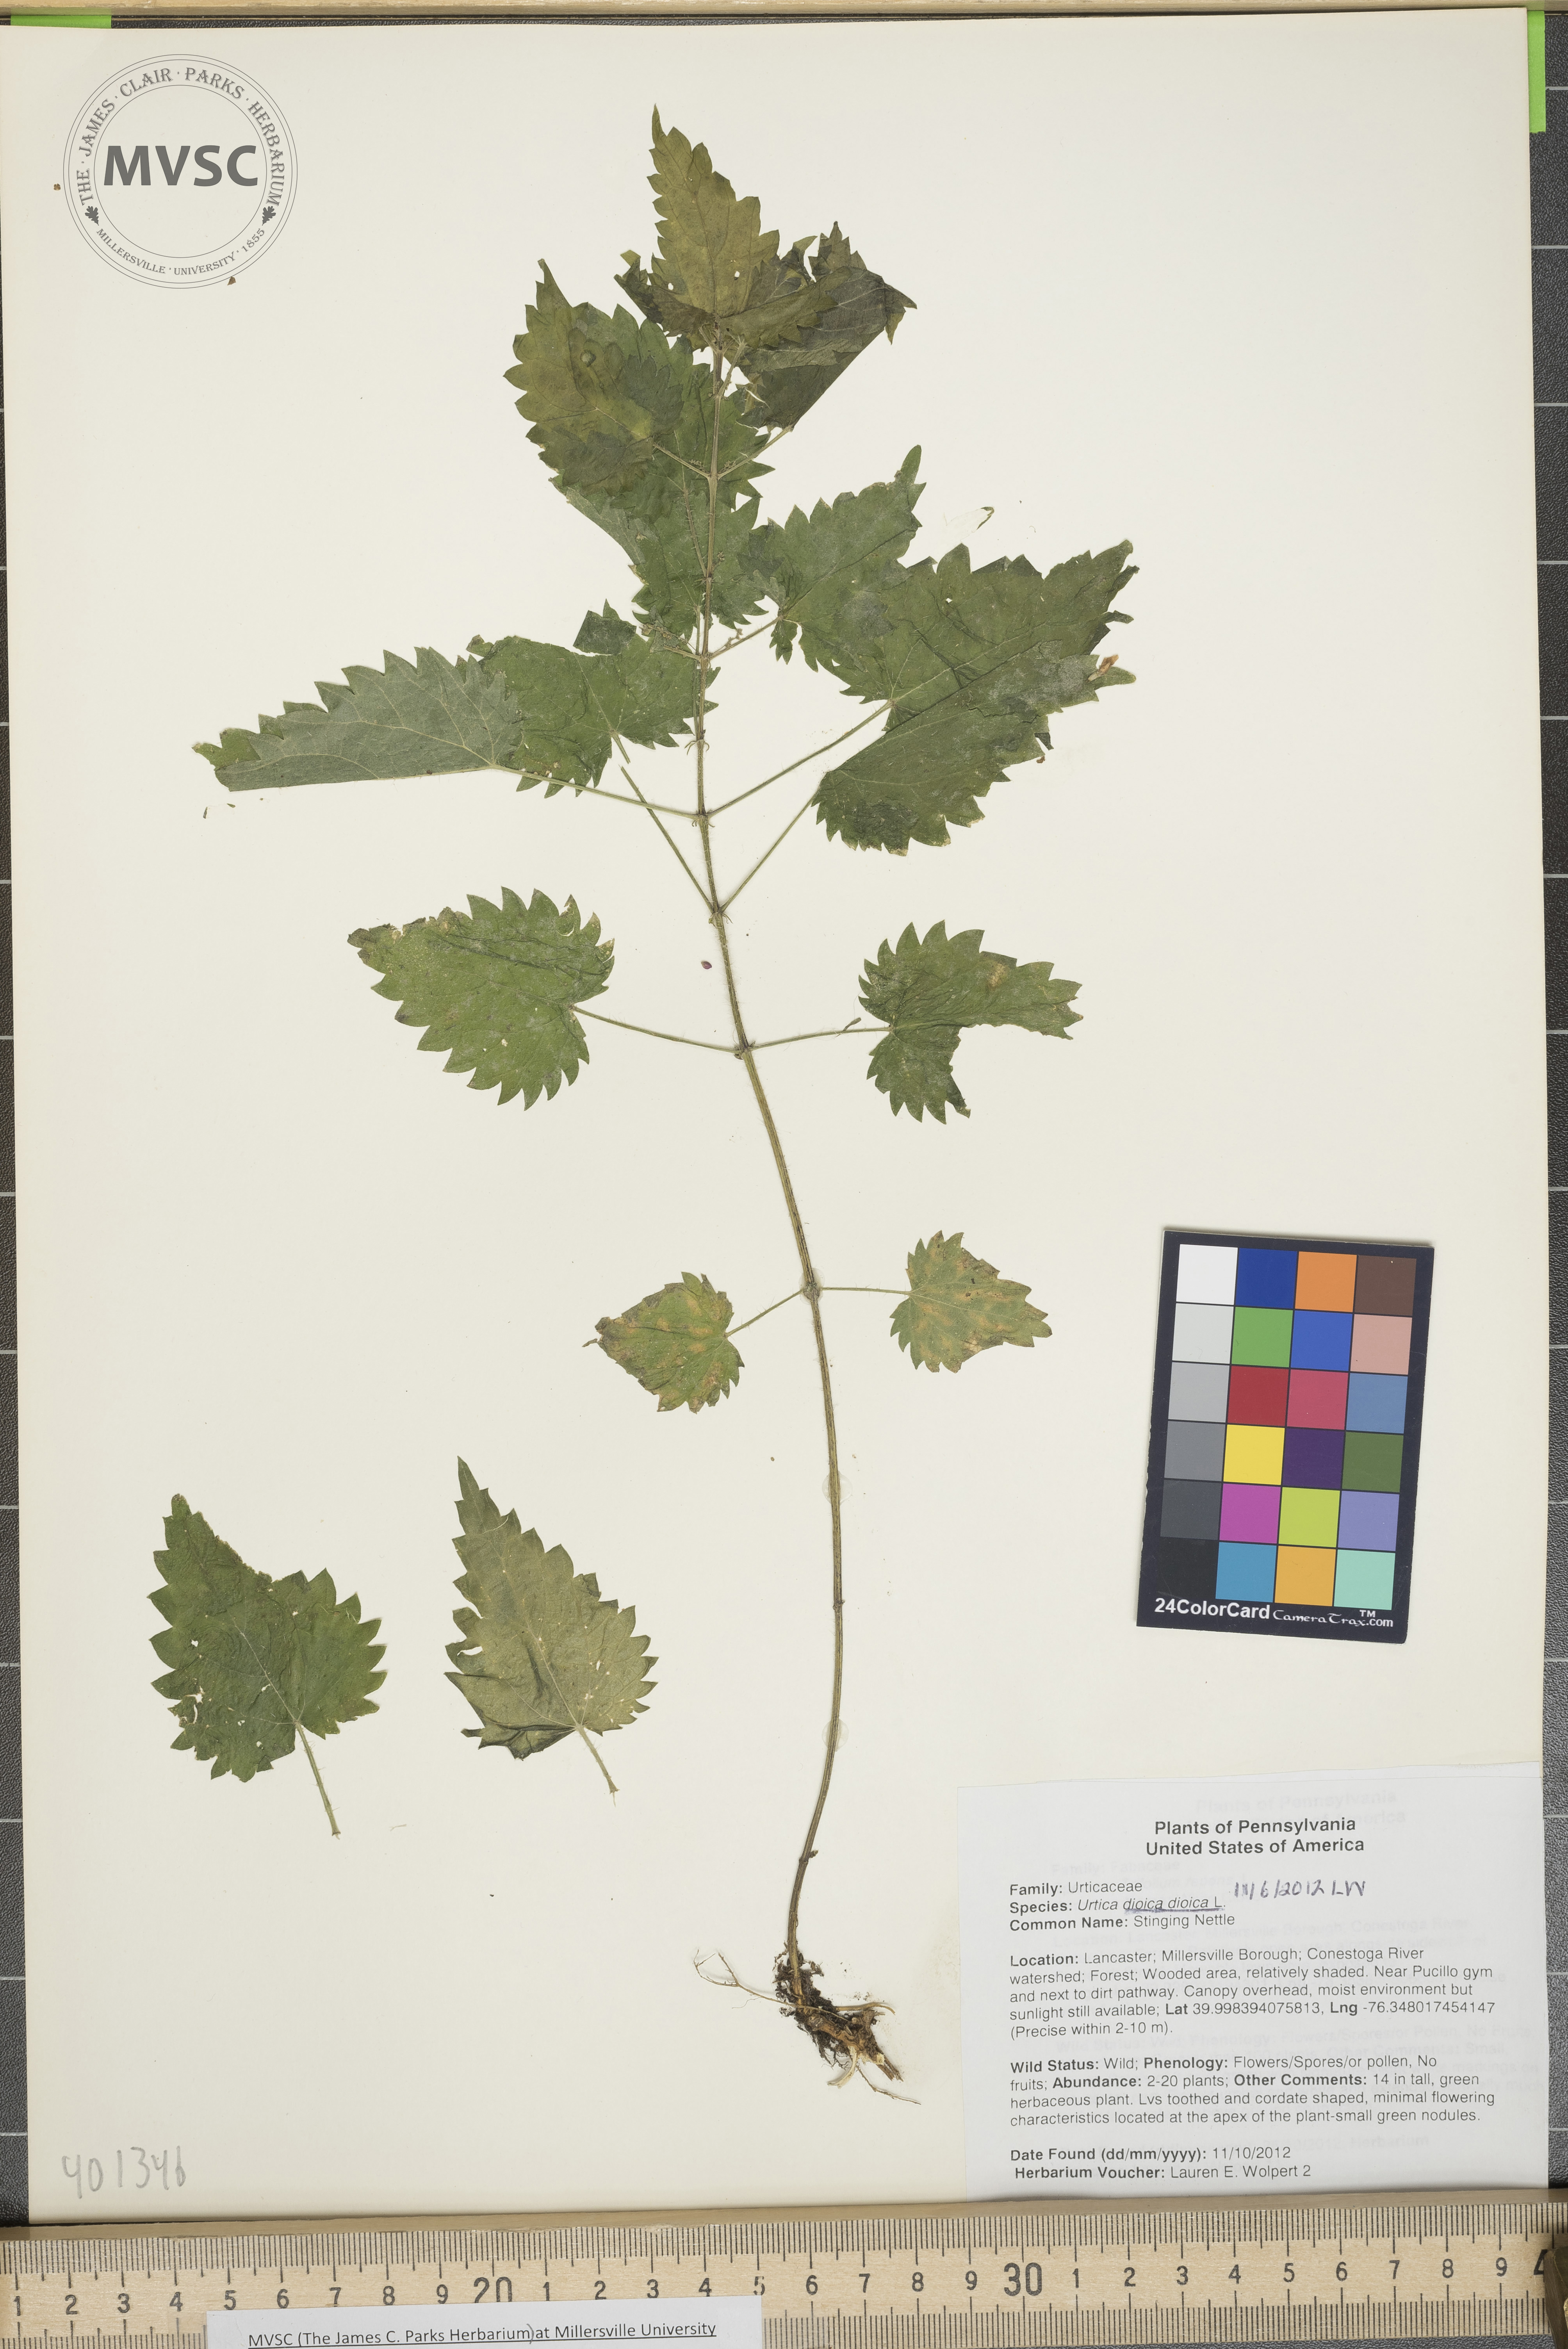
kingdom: Plantae
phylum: Tracheophyta
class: Magnoliopsida
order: Rosales
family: Urticaceae
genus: Urtica
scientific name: Urtica dioica
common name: Stinging Nettle
